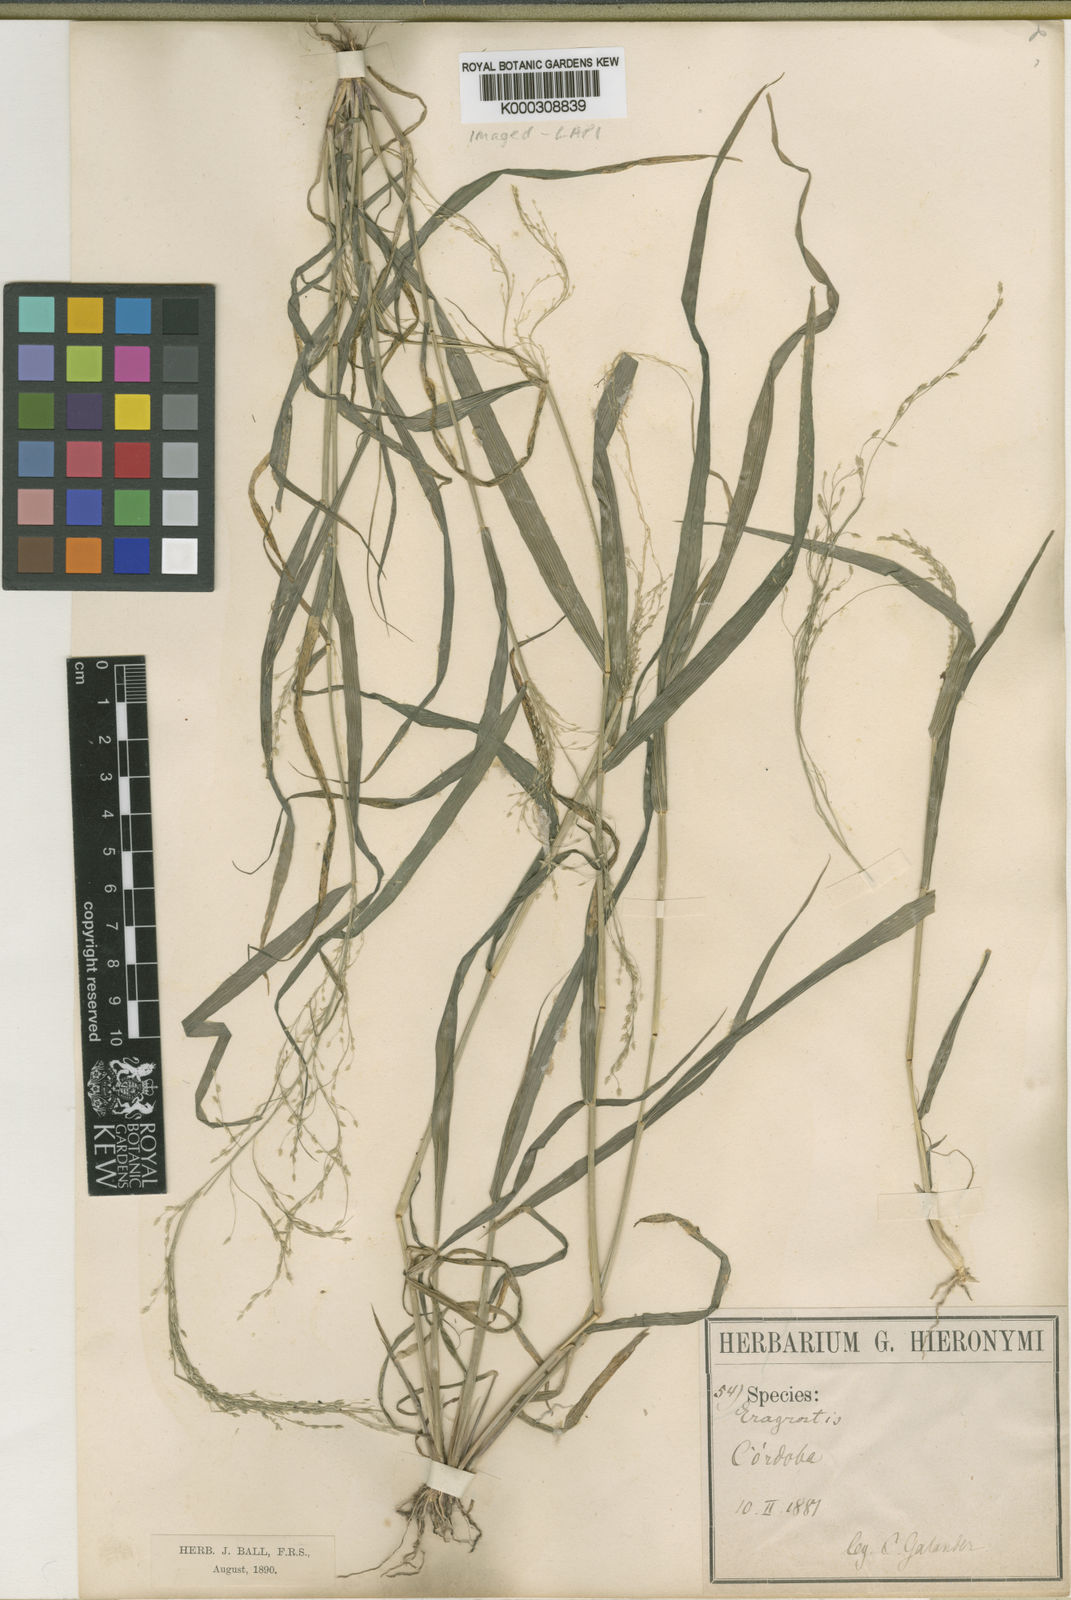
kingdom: Plantae
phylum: Tracheophyta
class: Liliopsida
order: Poales
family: Poaceae
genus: Eragrostis
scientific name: Eragrostis virescens
